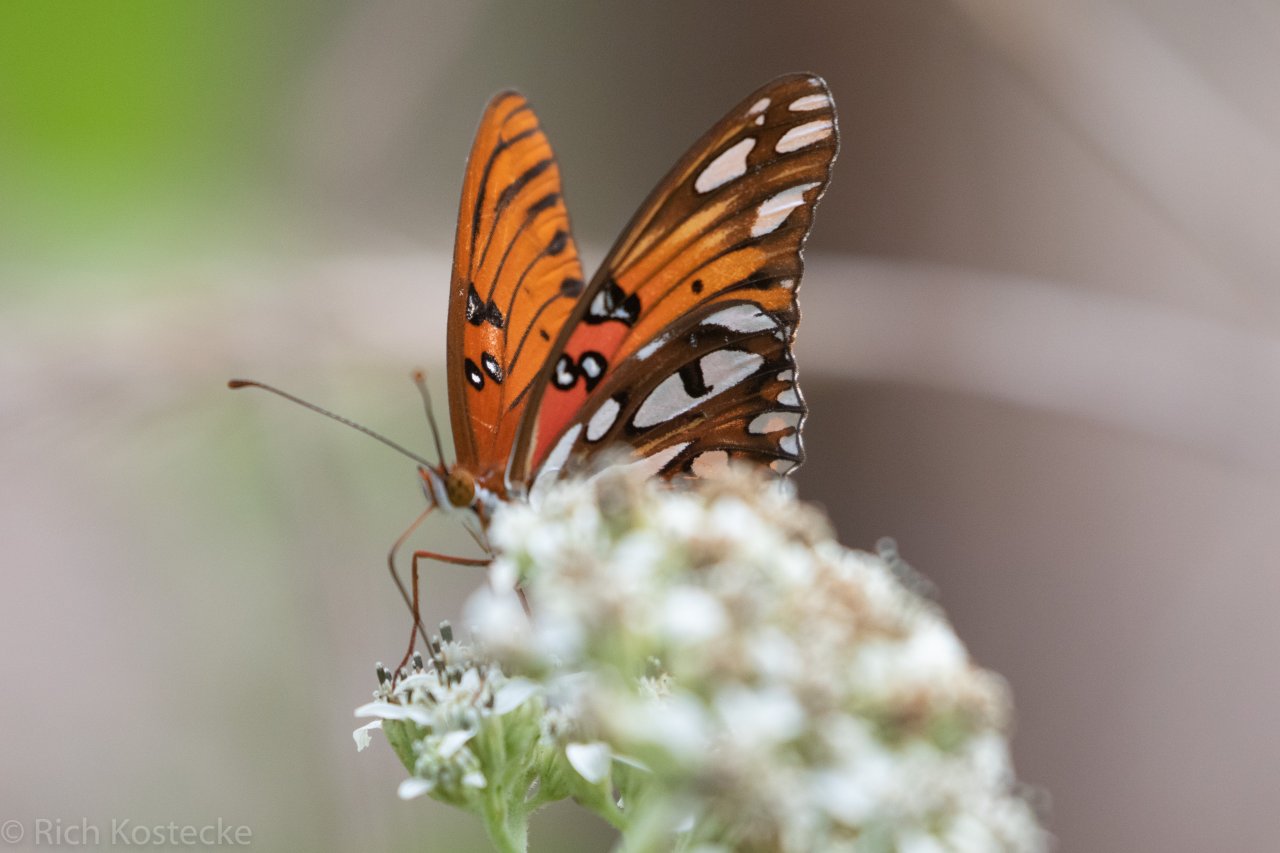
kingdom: Animalia
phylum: Arthropoda
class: Insecta
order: Lepidoptera
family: Nymphalidae
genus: Dione
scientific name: Dione vanillae
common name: Gulf Fritillary
